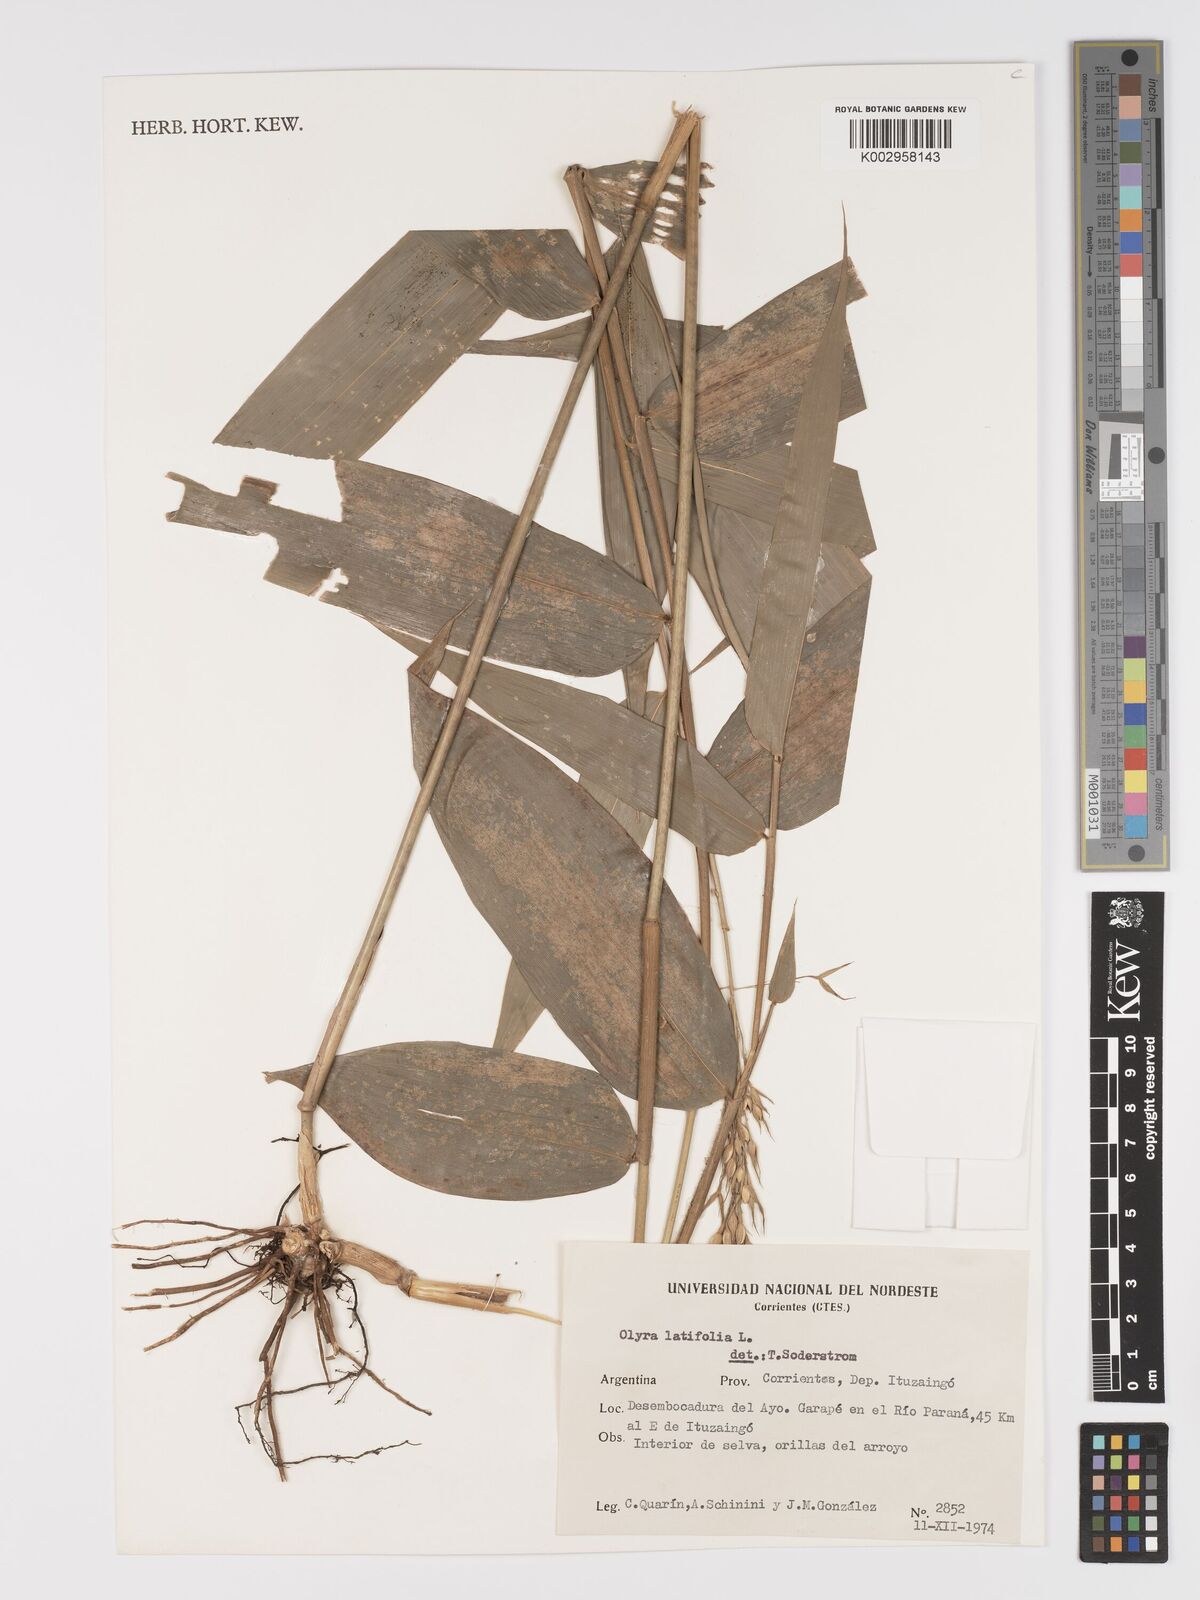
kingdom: Plantae
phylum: Tracheophyta
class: Liliopsida
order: Poales
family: Poaceae
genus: Olyra
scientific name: Olyra latifolia
